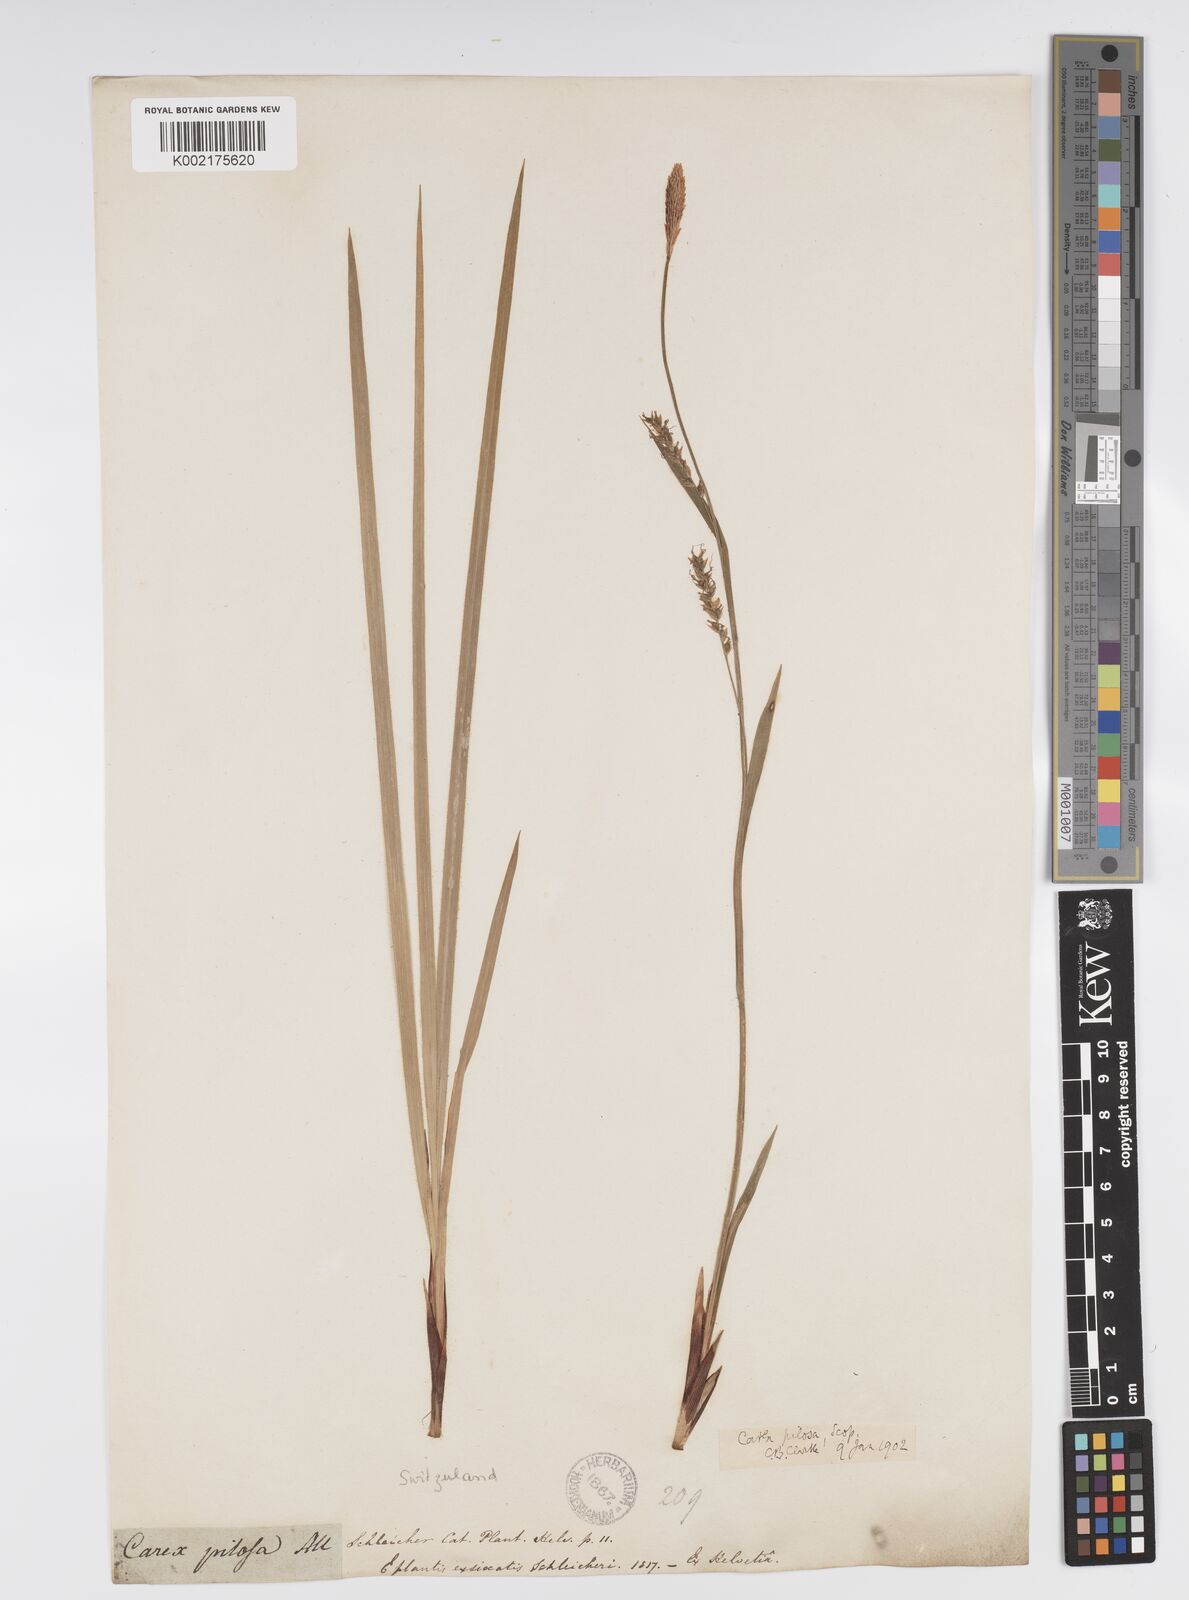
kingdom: Plantae
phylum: Tracheophyta
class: Liliopsida
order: Poales
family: Cyperaceae
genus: Carex
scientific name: Carex pilosa
